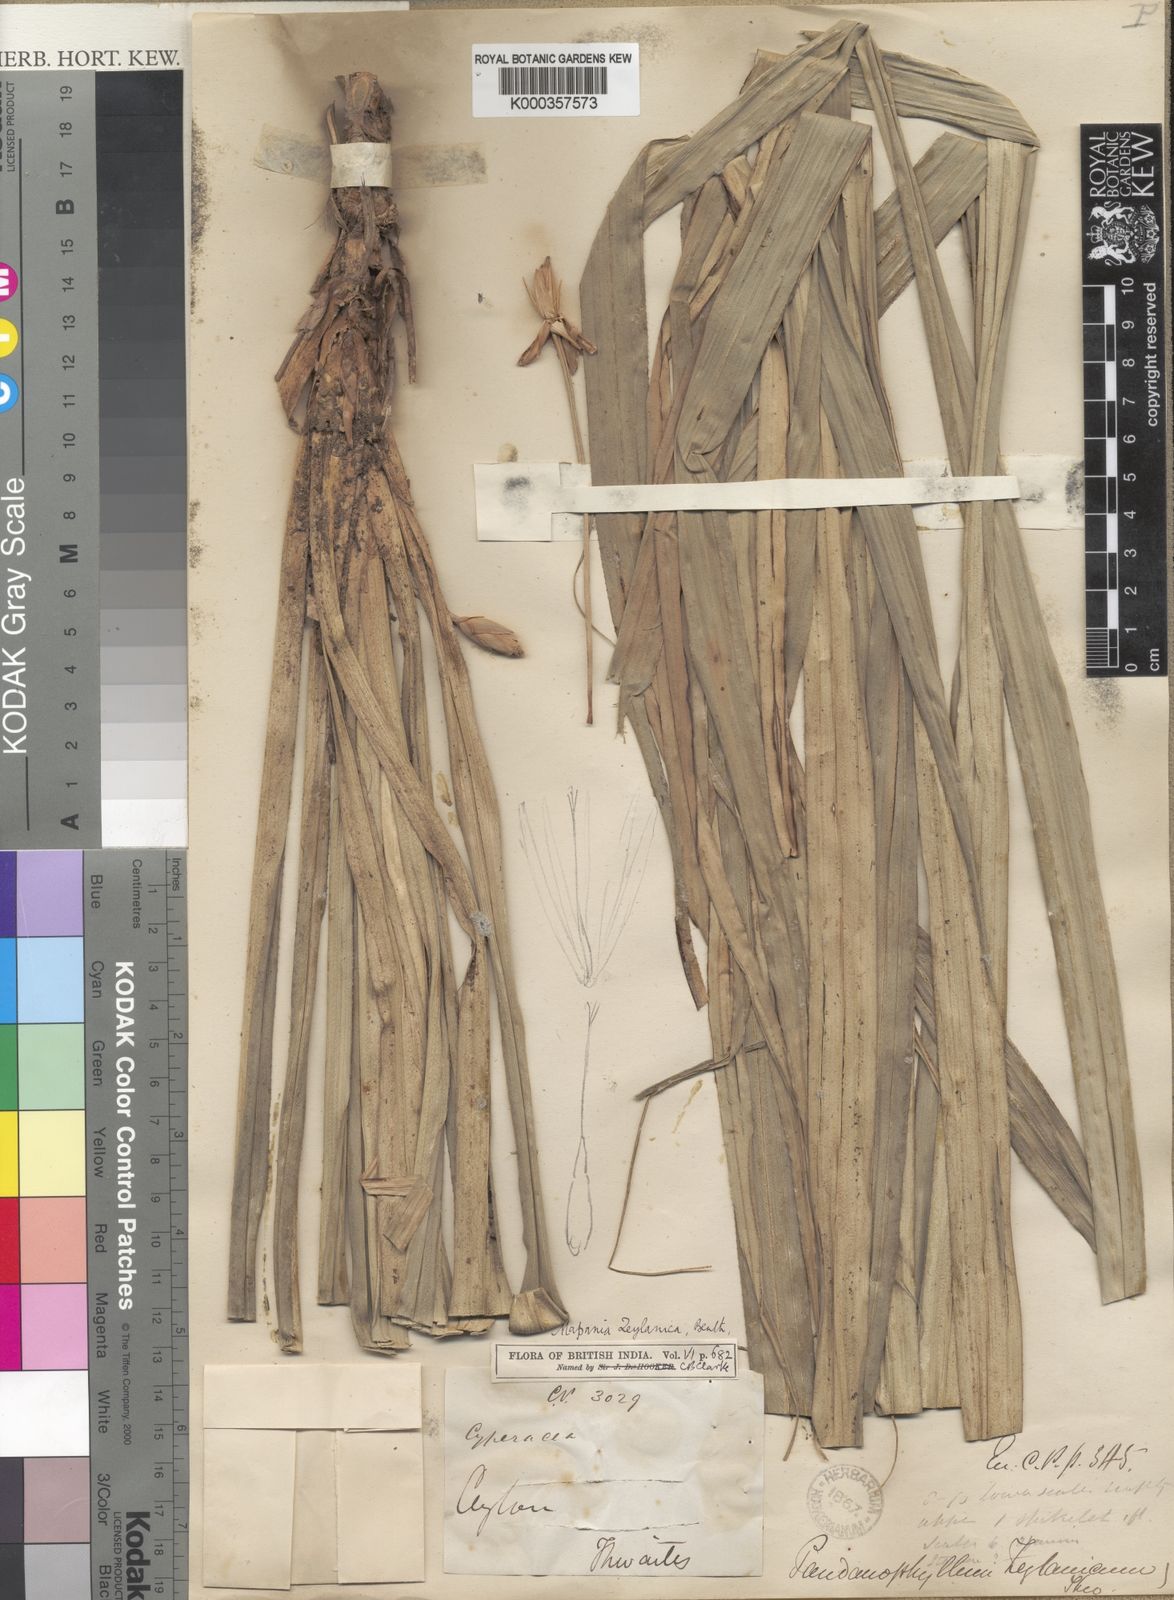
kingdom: Plantae
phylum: Tracheophyta
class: Liliopsida
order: Poales
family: Cyperaceae
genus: Mapania
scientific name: Mapania
